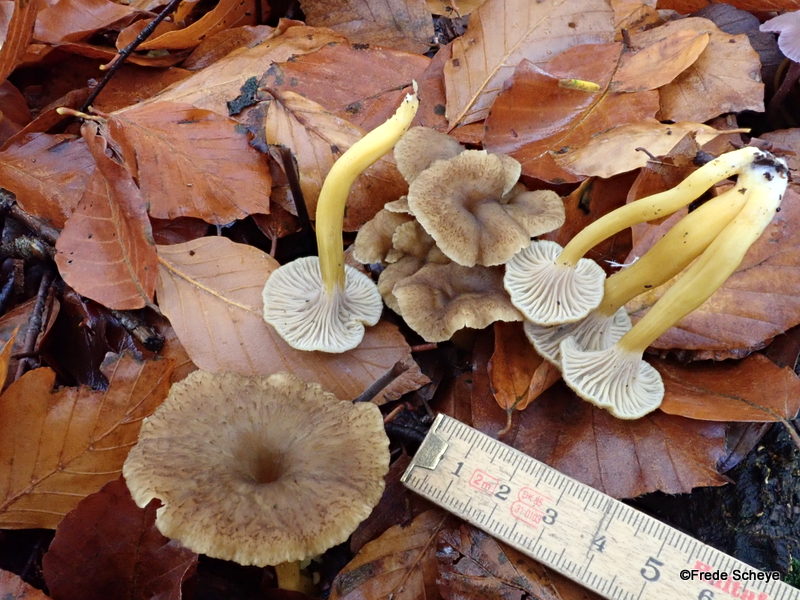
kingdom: Fungi
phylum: Basidiomycota
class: Agaricomycetes
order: Cantharellales
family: Hydnaceae
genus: Craterellus
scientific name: Craterellus tubaeformis
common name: tragt-kantarel
